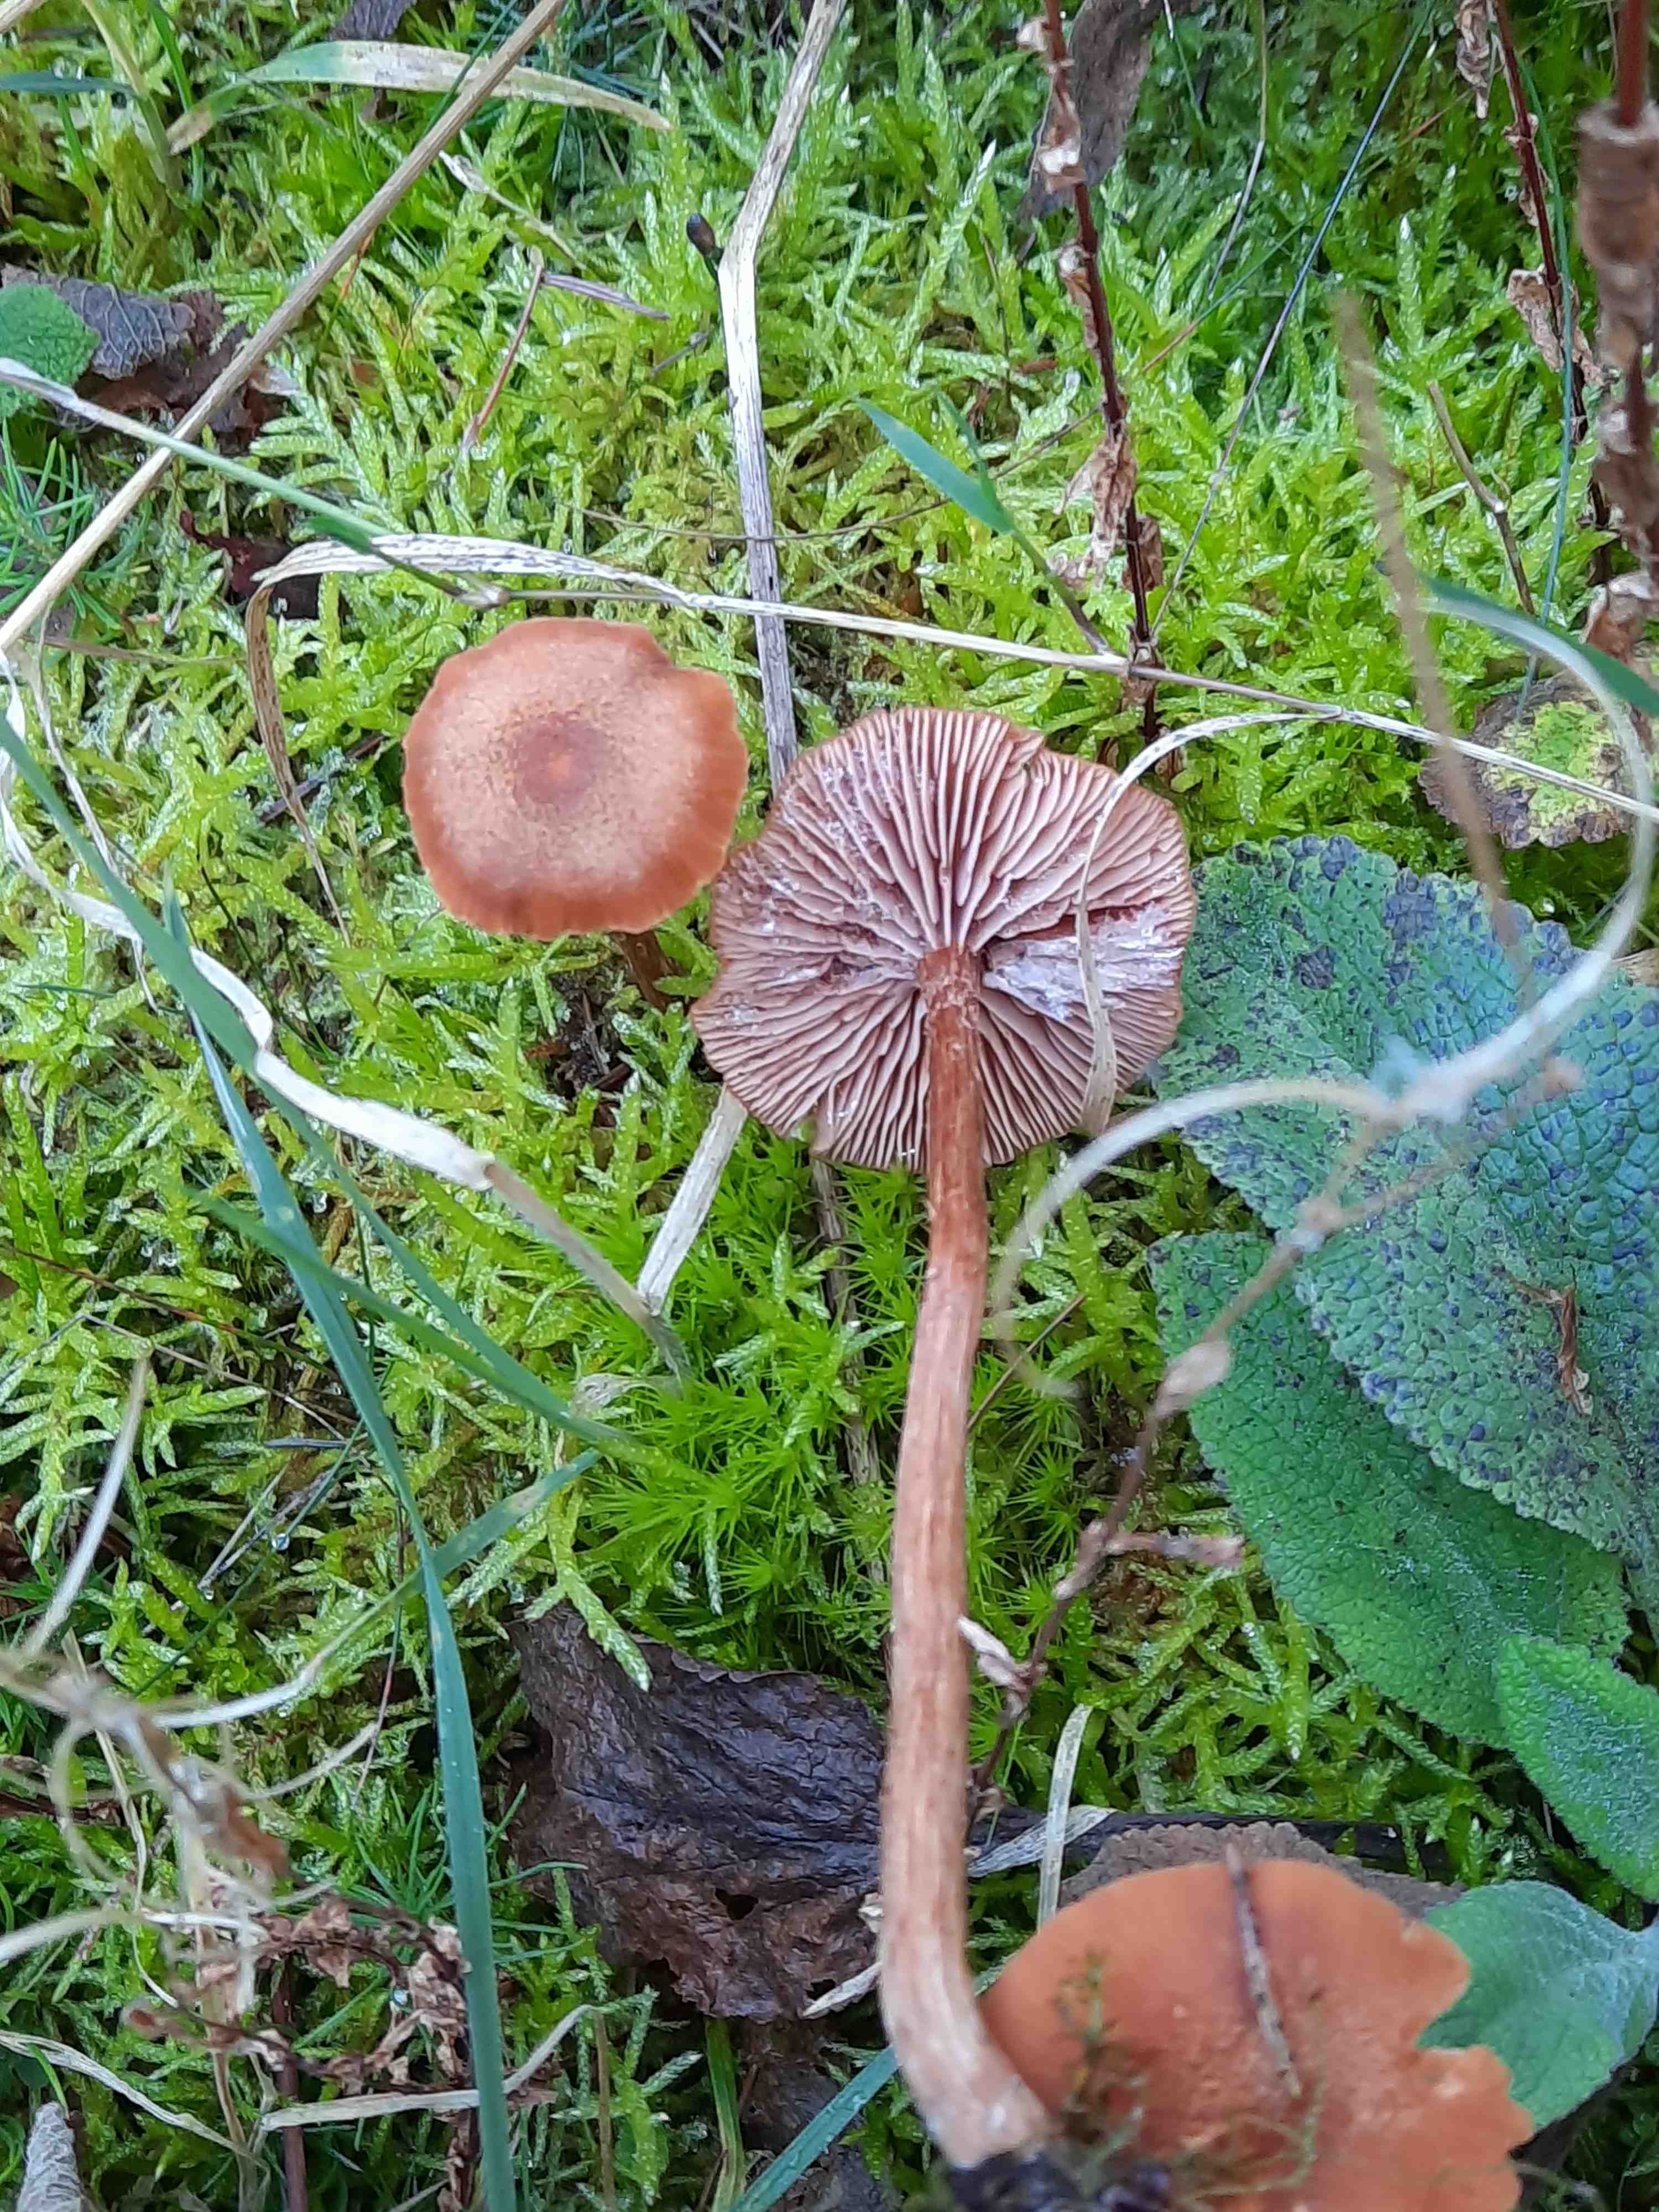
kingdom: Fungi
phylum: Basidiomycota
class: Agaricomycetes
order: Agaricales
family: Hydnangiaceae
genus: Laccaria
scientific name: Laccaria proxima
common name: stor ametysthat
